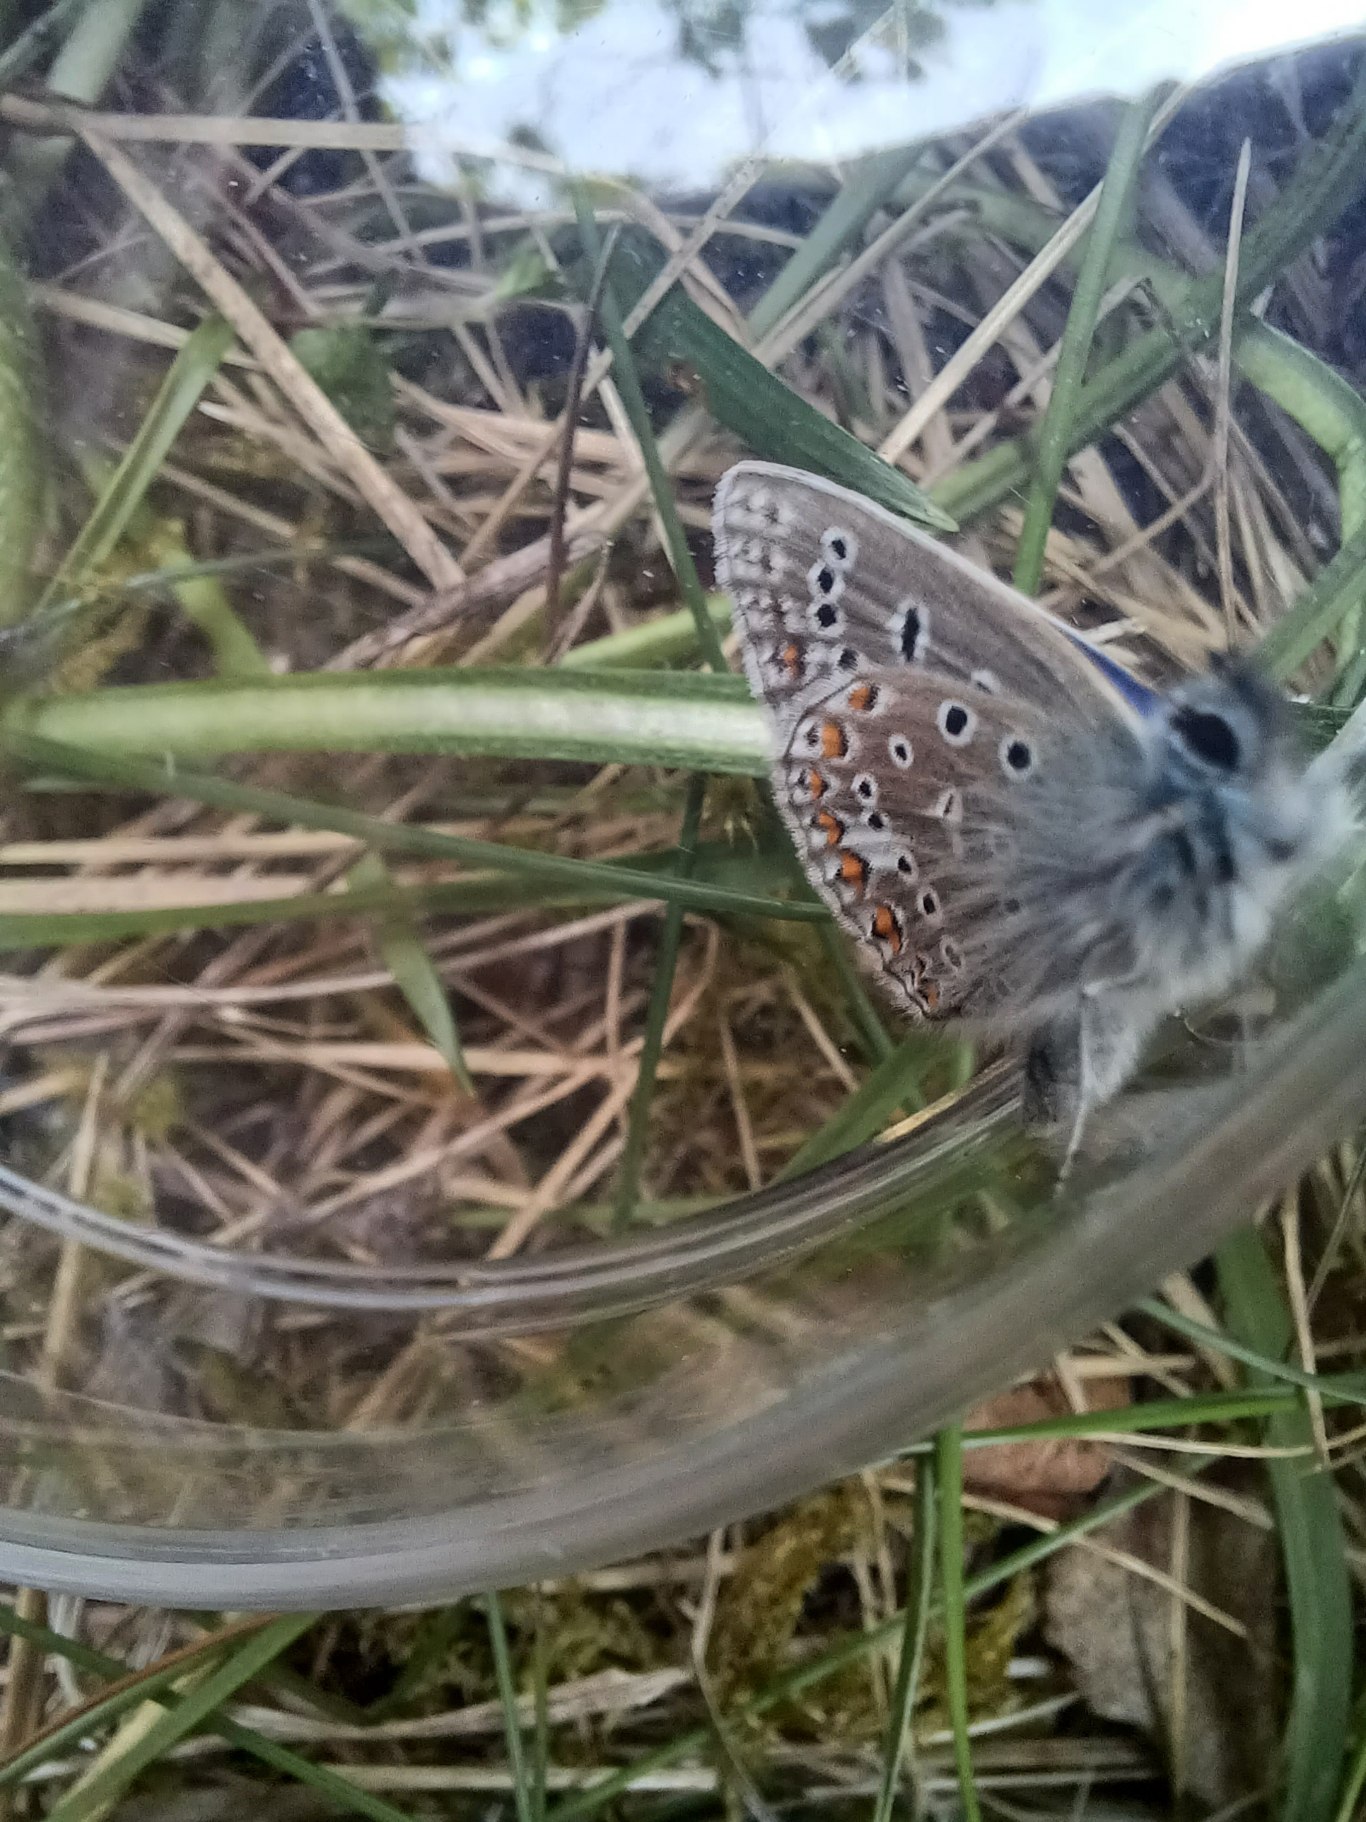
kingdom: Animalia
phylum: Arthropoda
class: Insecta
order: Lepidoptera
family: Lycaenidae
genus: Polyommatus
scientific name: Polyommatus icarus
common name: Almindelig blåfugl
